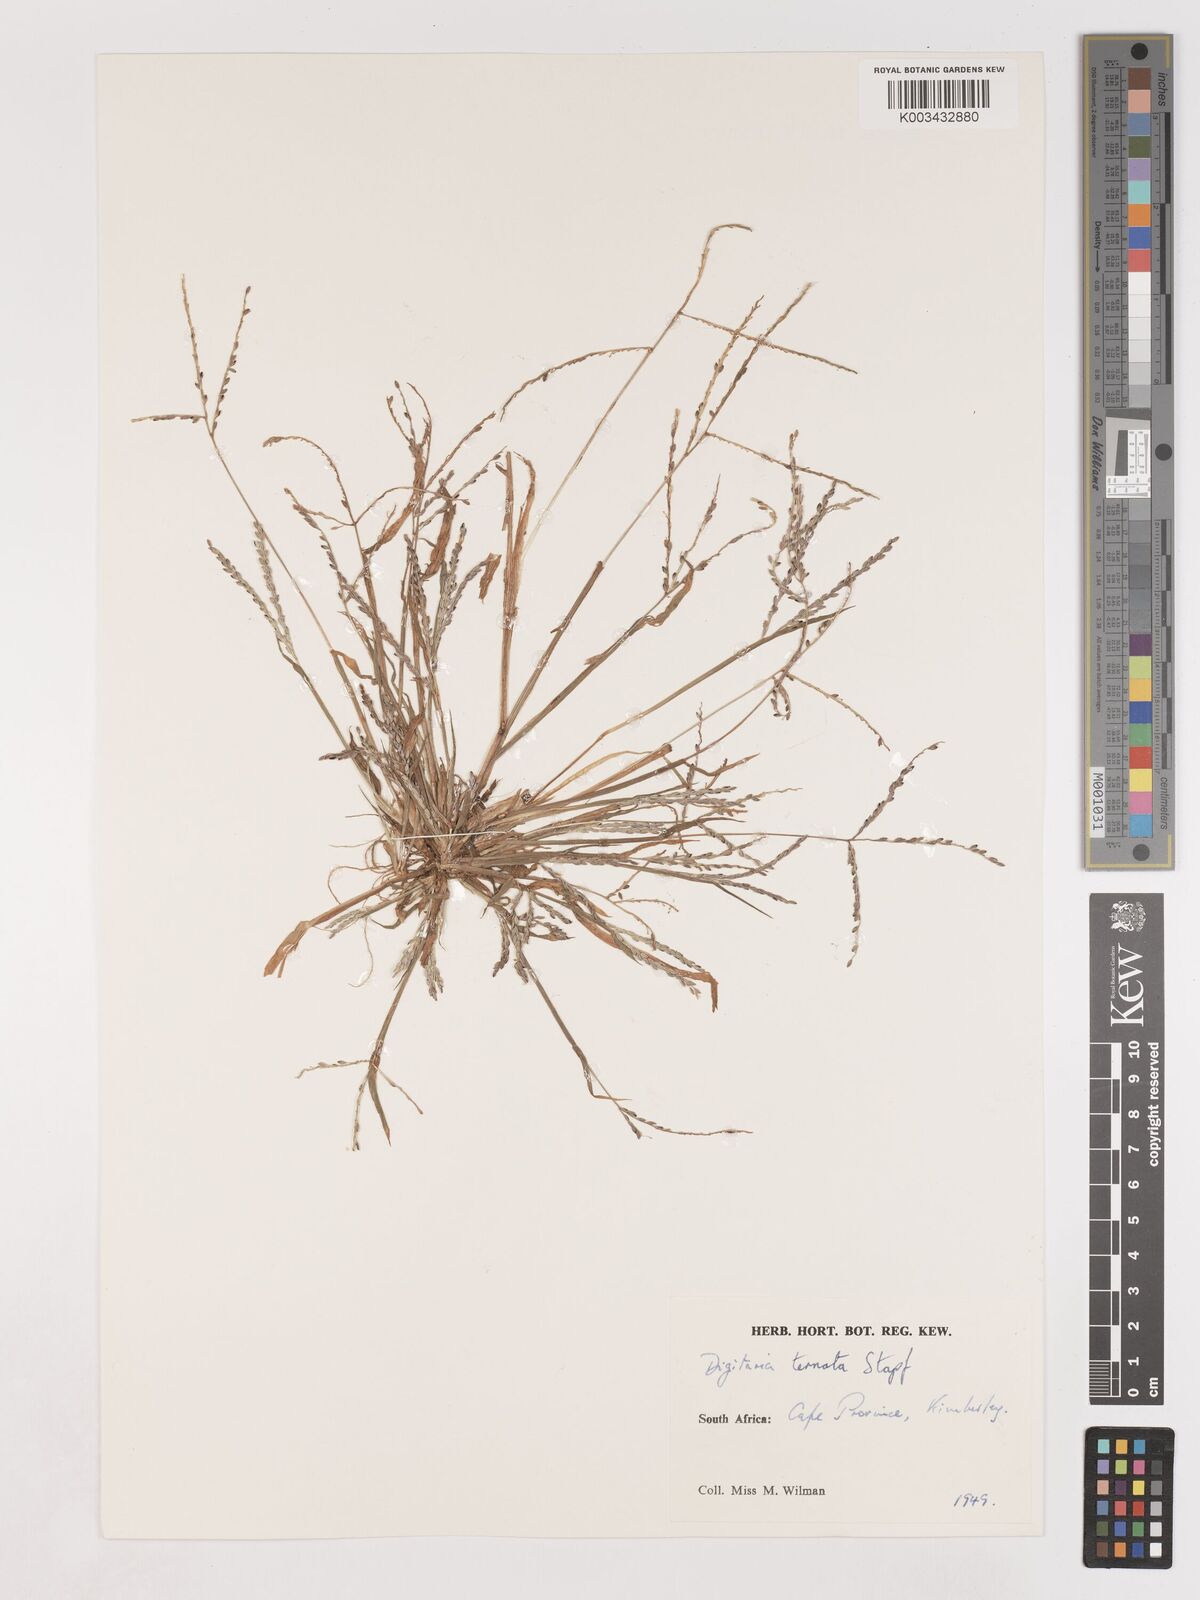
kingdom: Plantae
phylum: Tracheophyta
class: Liliopsida
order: Poales
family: Poaceae
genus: Digitaria
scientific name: Digitaria ternata
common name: Blackseed crabgrass
